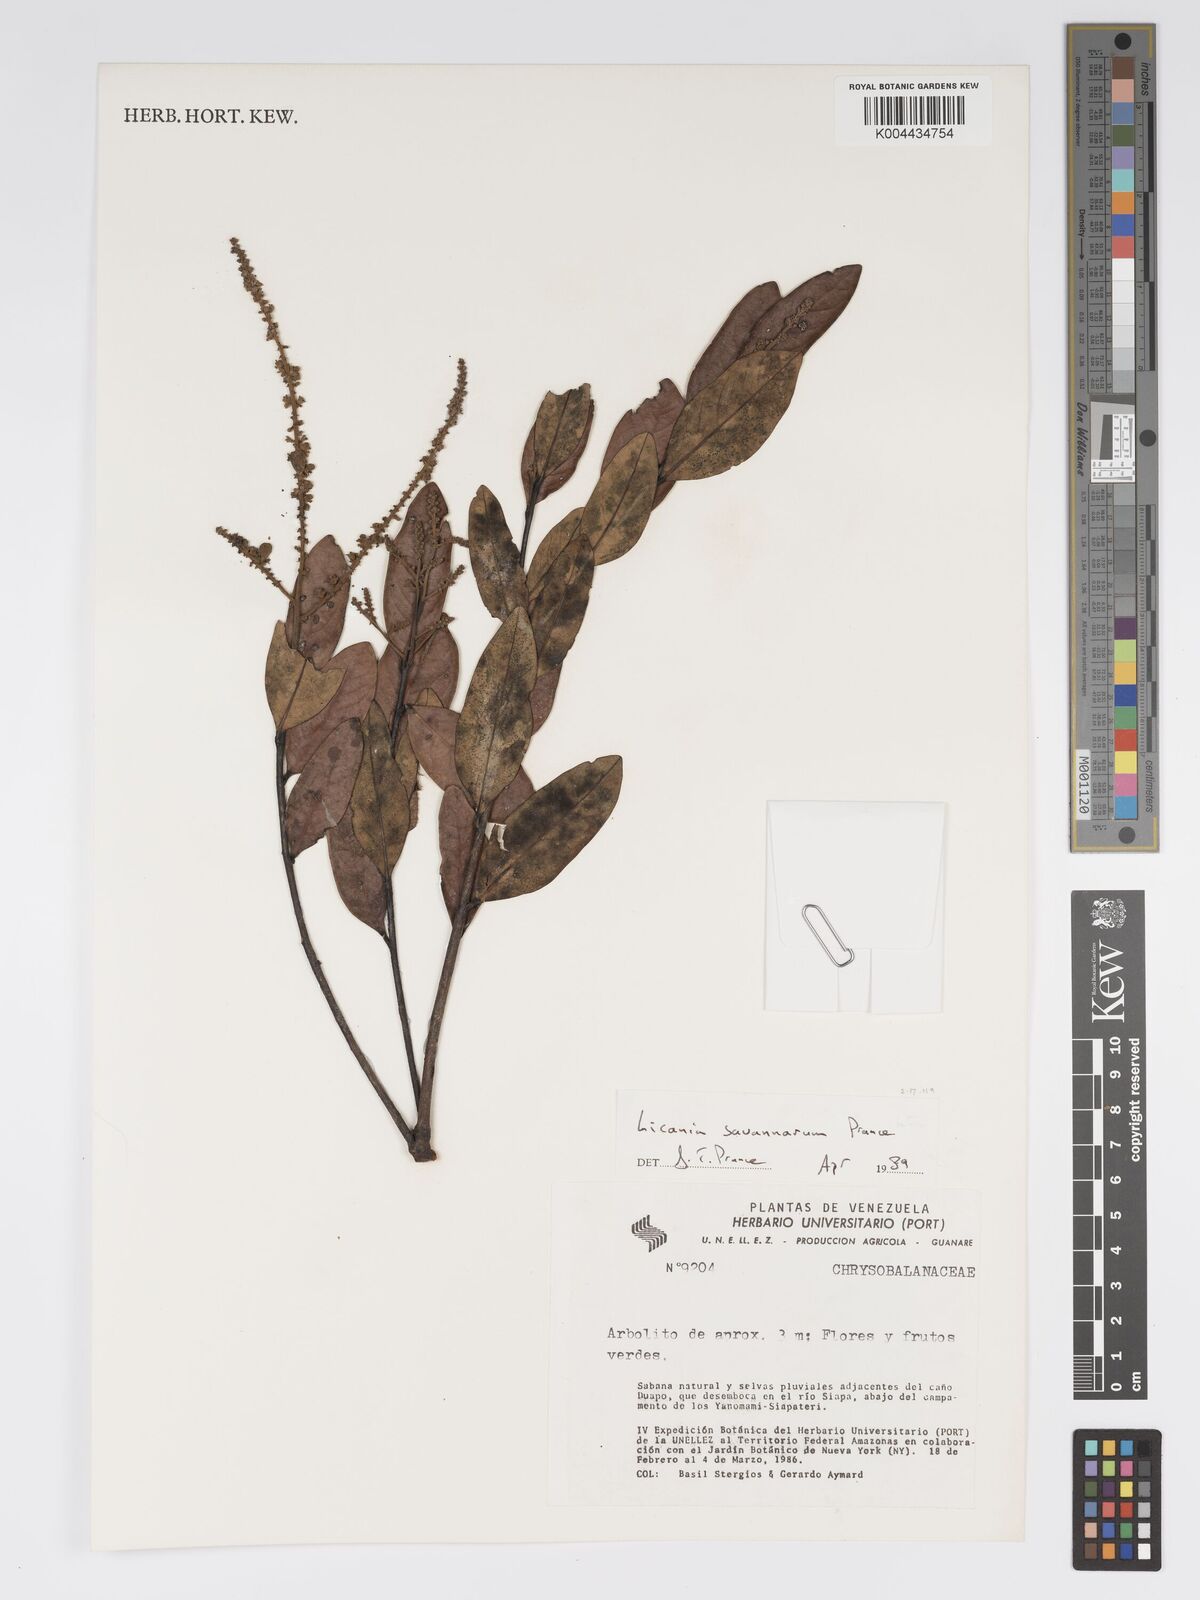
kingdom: Plantae
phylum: Tracheophyta
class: Magnoliopsida
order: Malpighiales
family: Chrysobalanaceae
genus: Licania
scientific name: Licania savannarum
